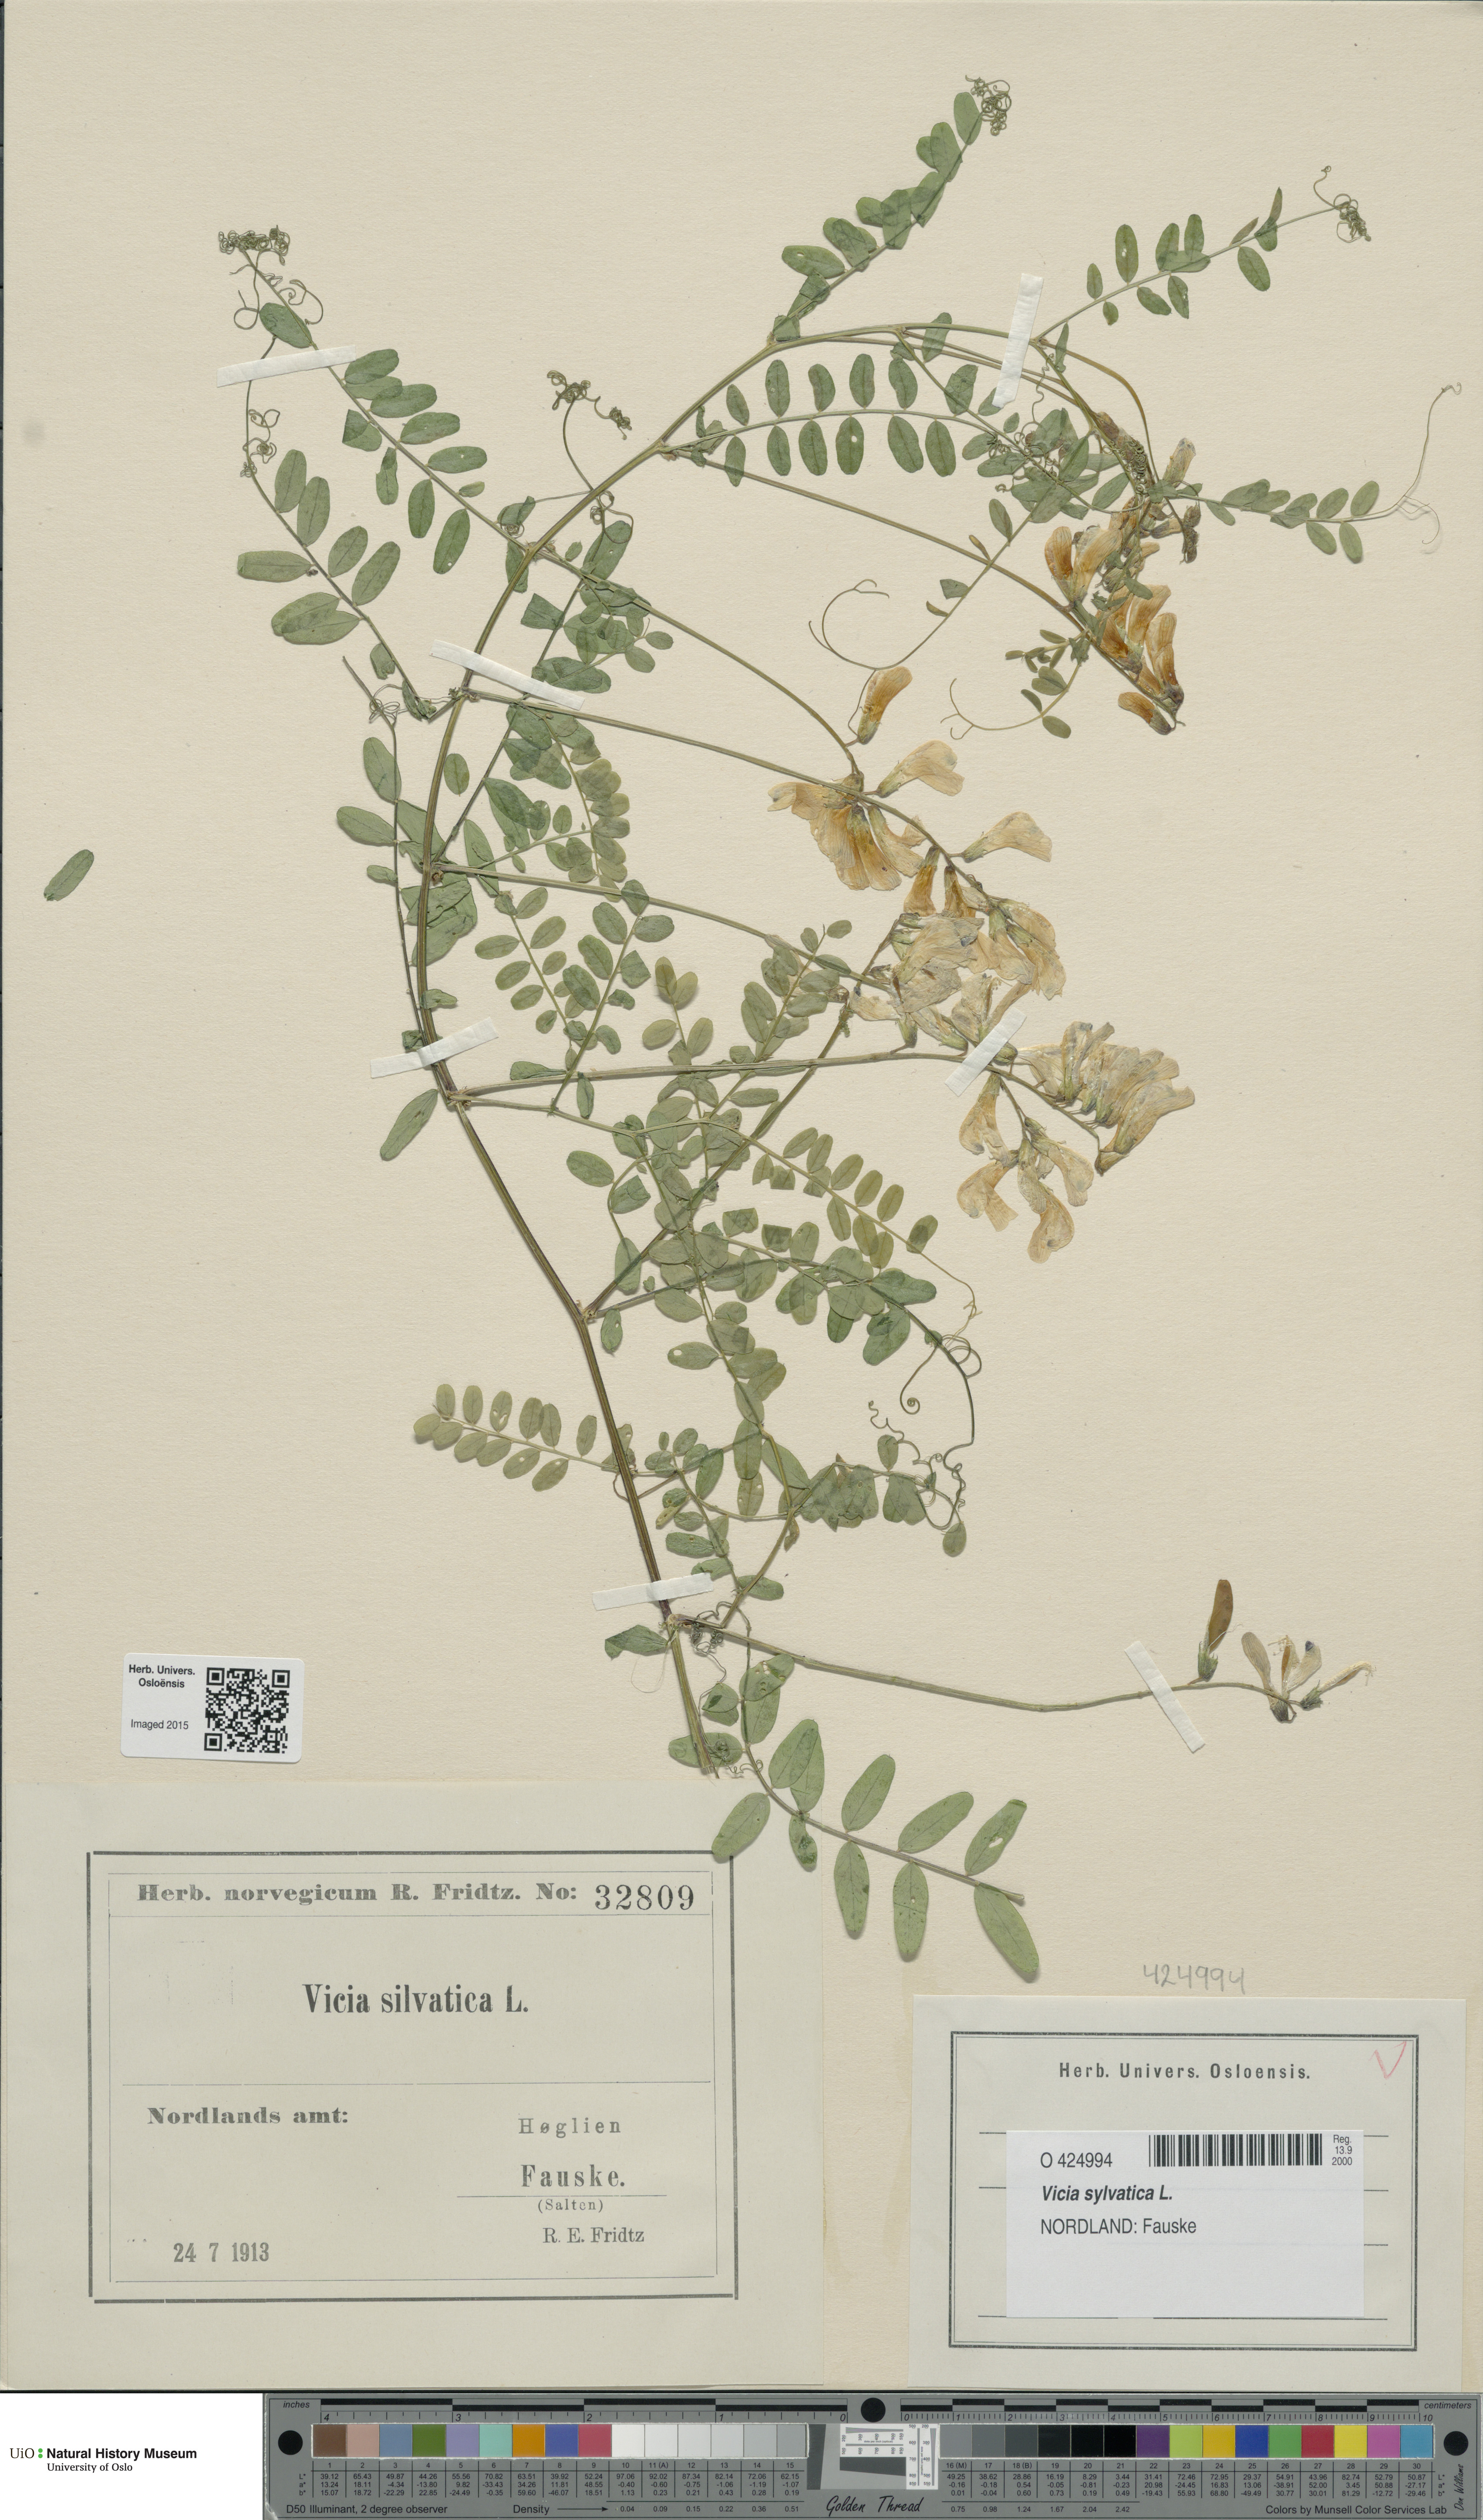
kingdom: Plantae
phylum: Tracheophyta
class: Magnoliopsida
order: Fabales
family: Fabaceae
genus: Vicia
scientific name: Vicia sylvatica
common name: Wood vetch
